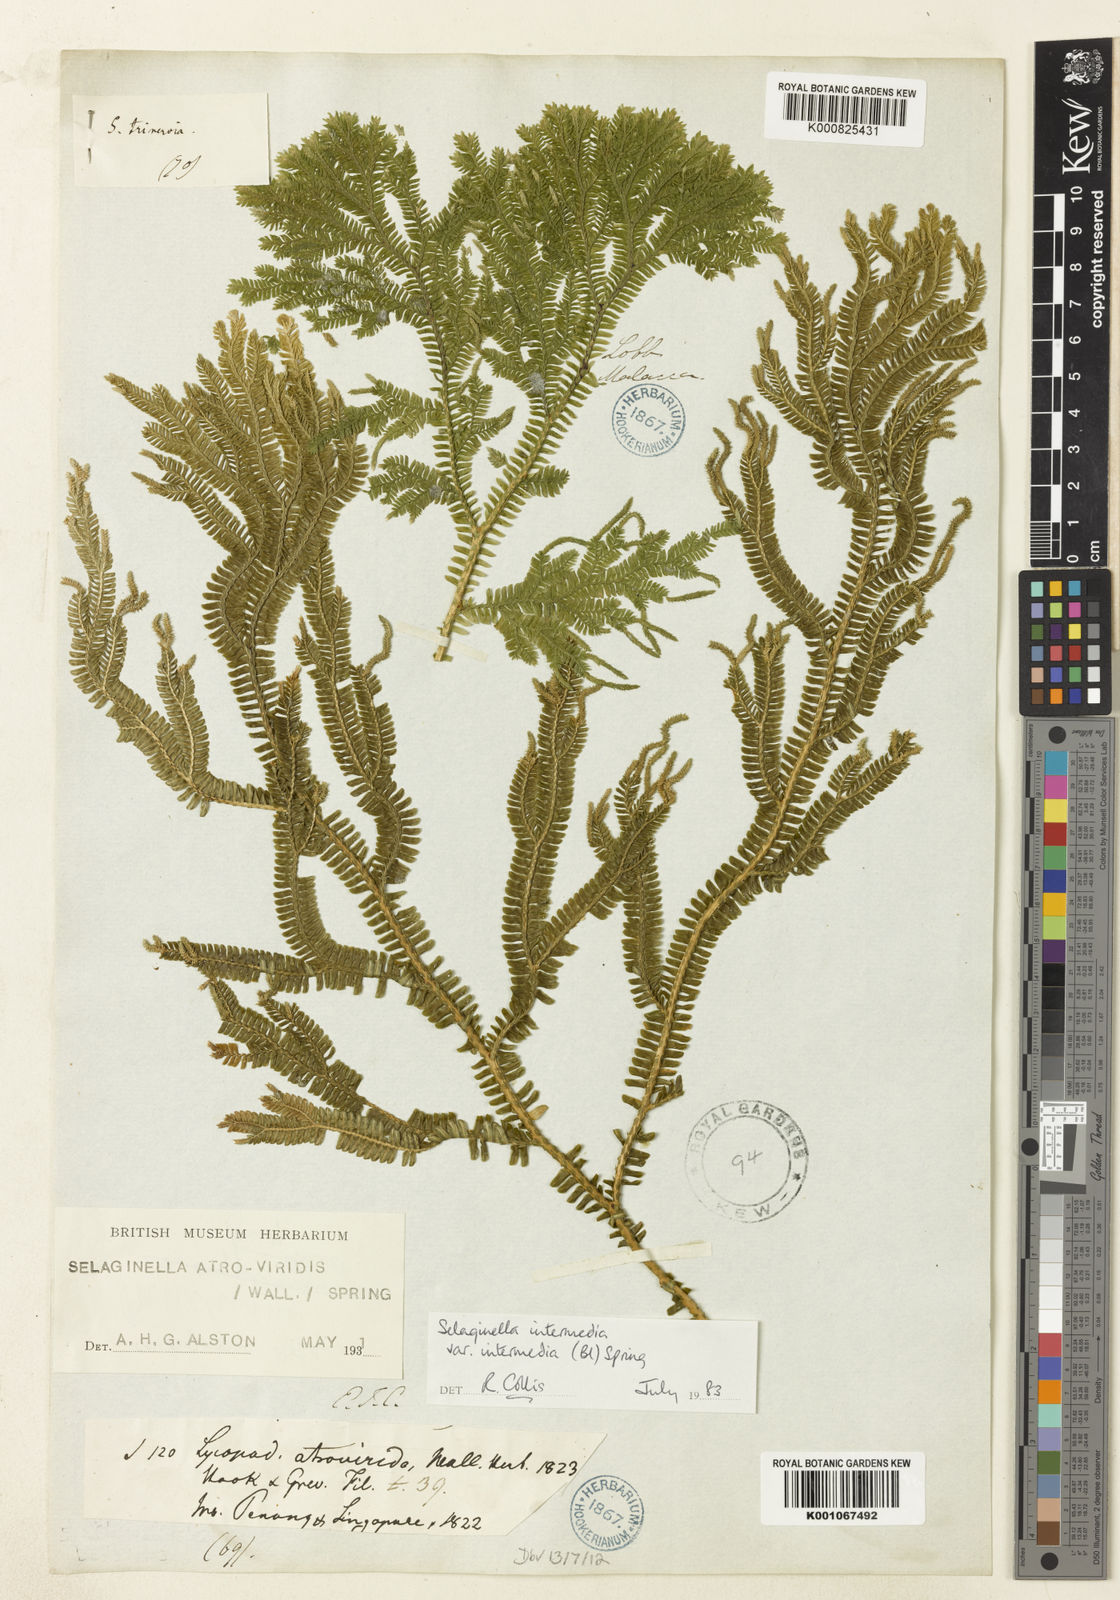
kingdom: Plantae
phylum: Tracheophyta
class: Lycopodiopsida
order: Selaginellales
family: Selaginellaceae
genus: Selaginella
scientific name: Selaginella intermedia
